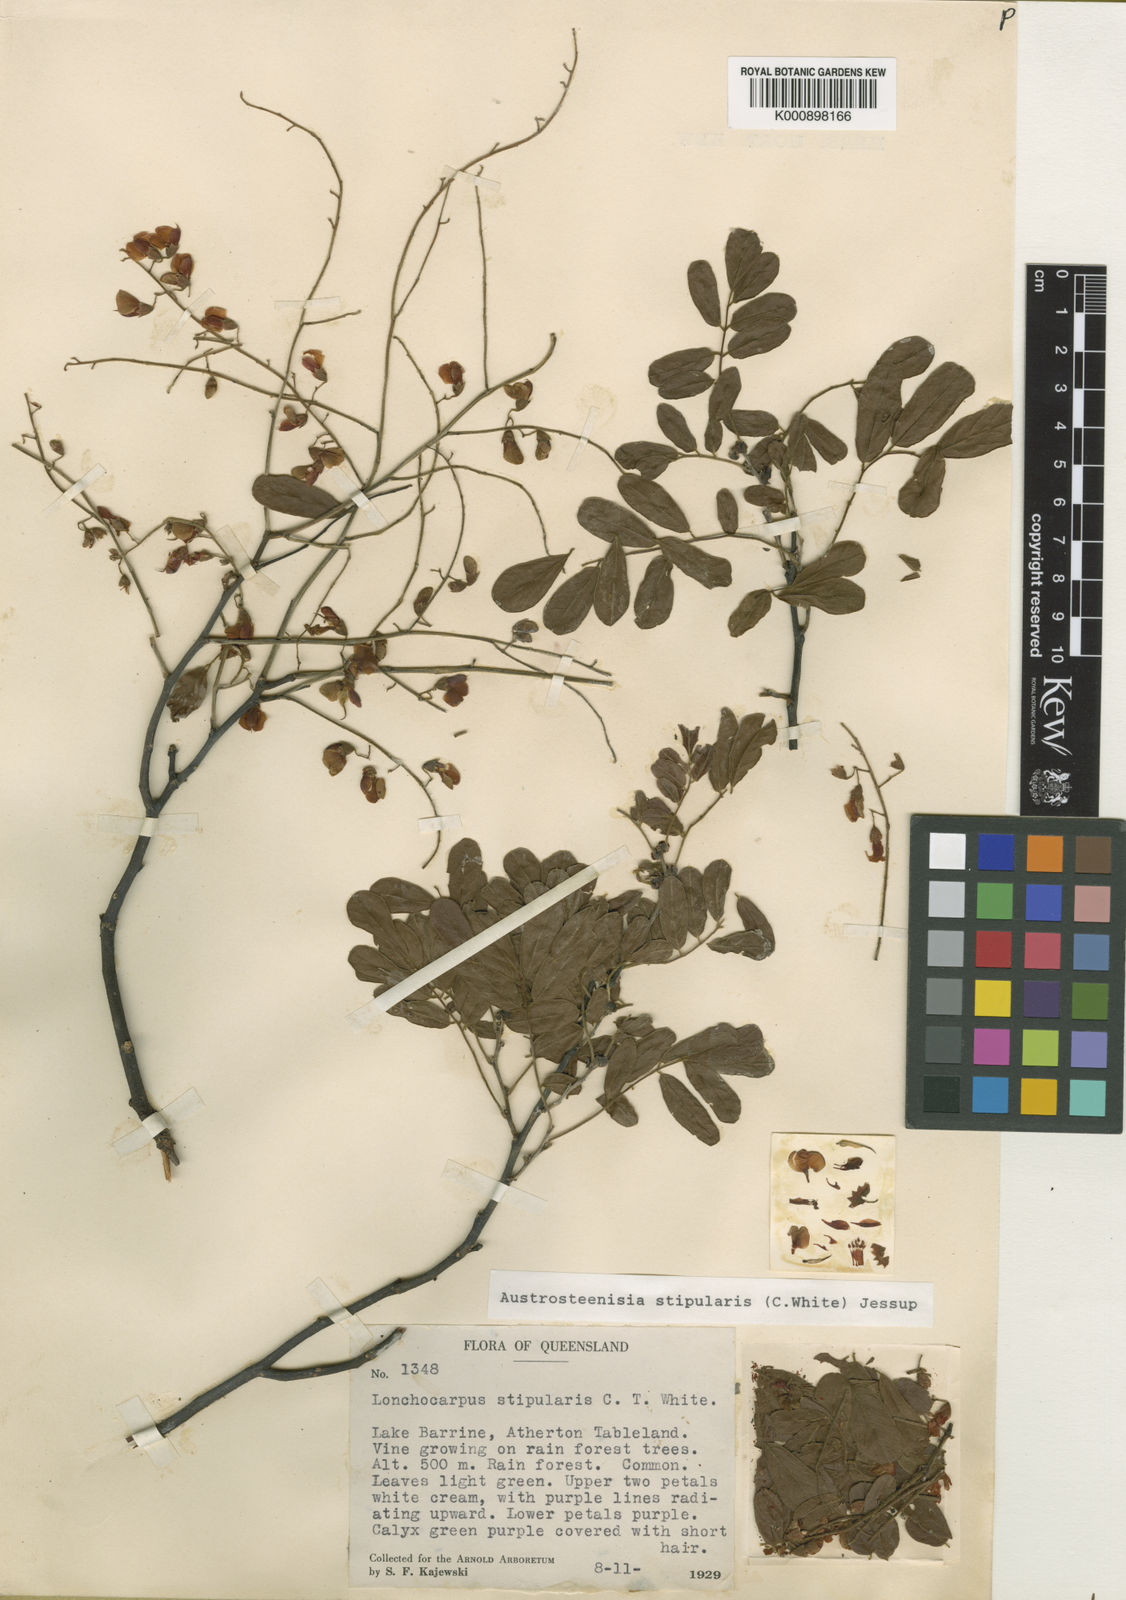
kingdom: Plantae
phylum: Tracheophyta
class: Magnoliopsida
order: Fabales
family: Fabaceae
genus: Austrosteenisia
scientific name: Austrosteenisia stipularis
